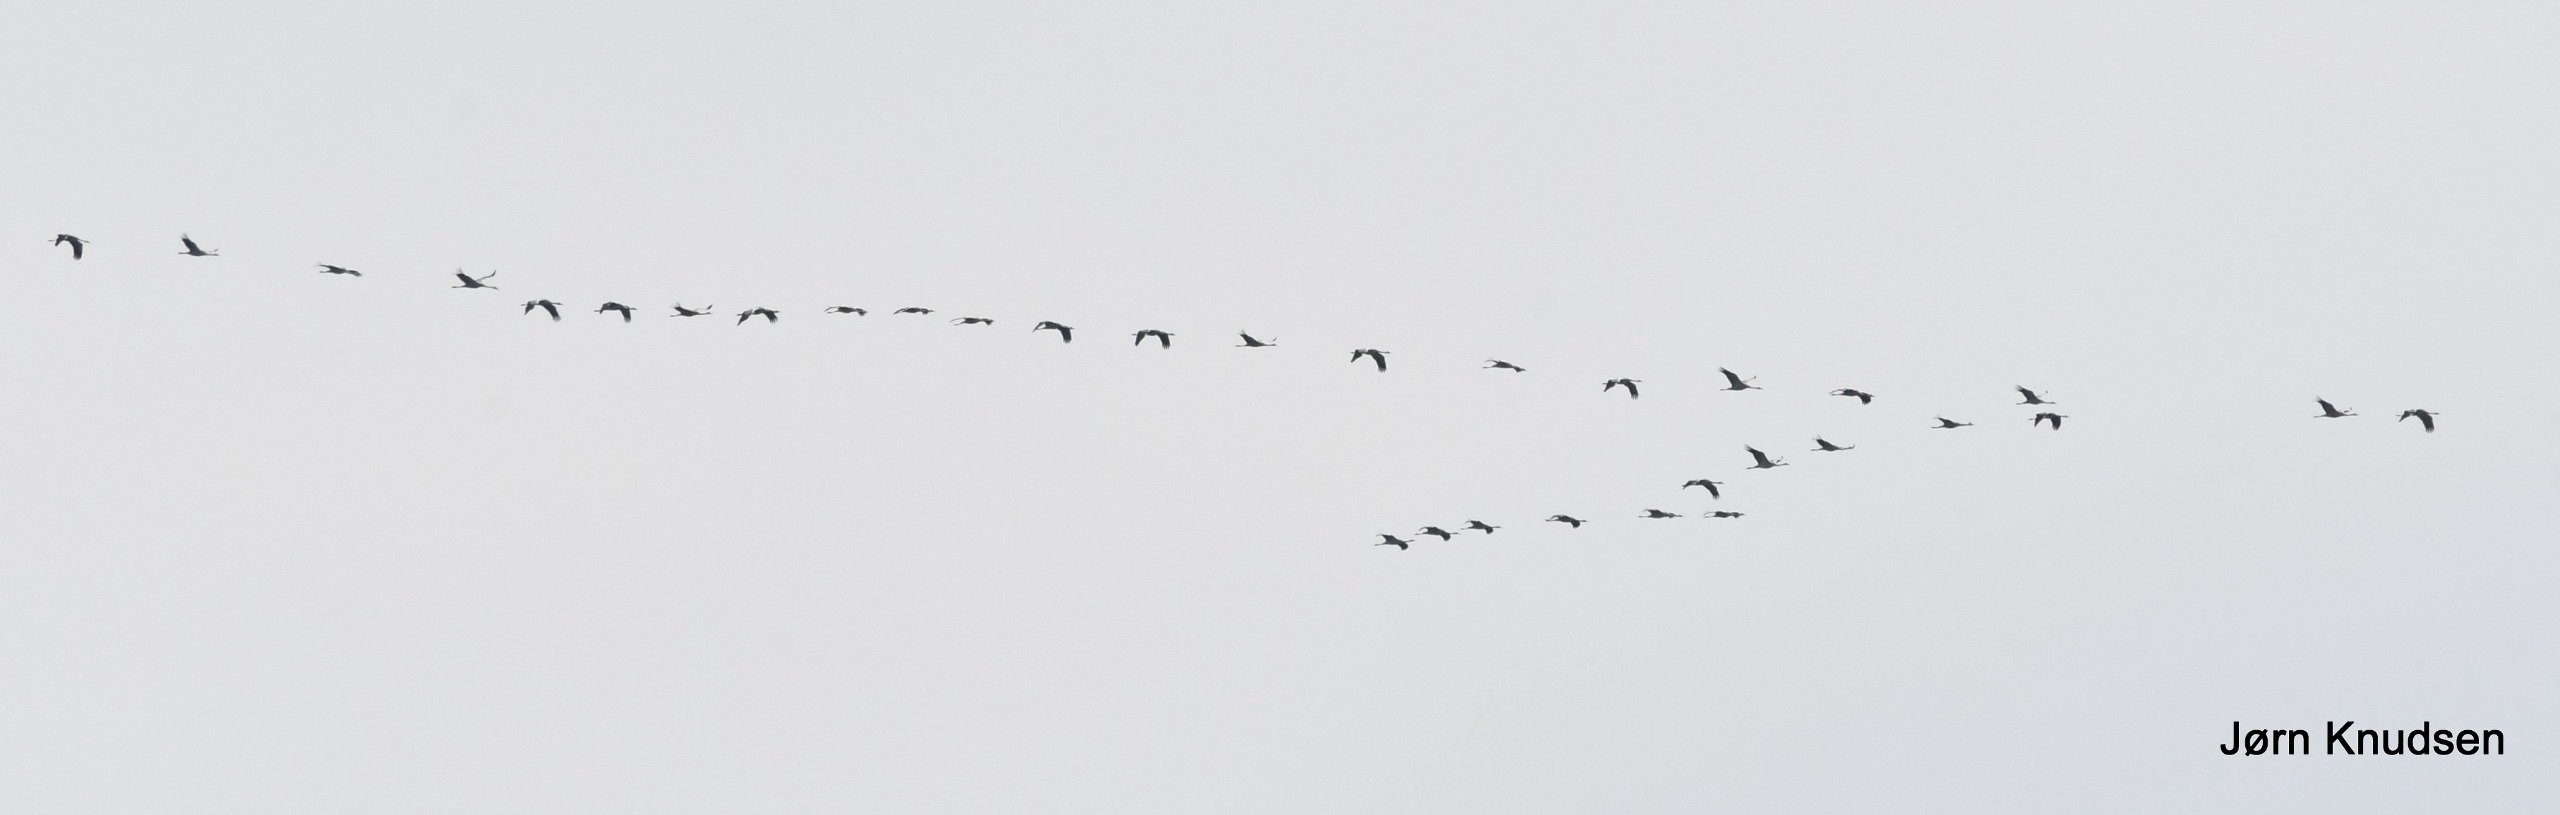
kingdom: Animalia
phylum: Chordata
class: Aves
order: Gruiformes
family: Gruidae
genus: Grus
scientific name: Grus grus
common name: Trane
